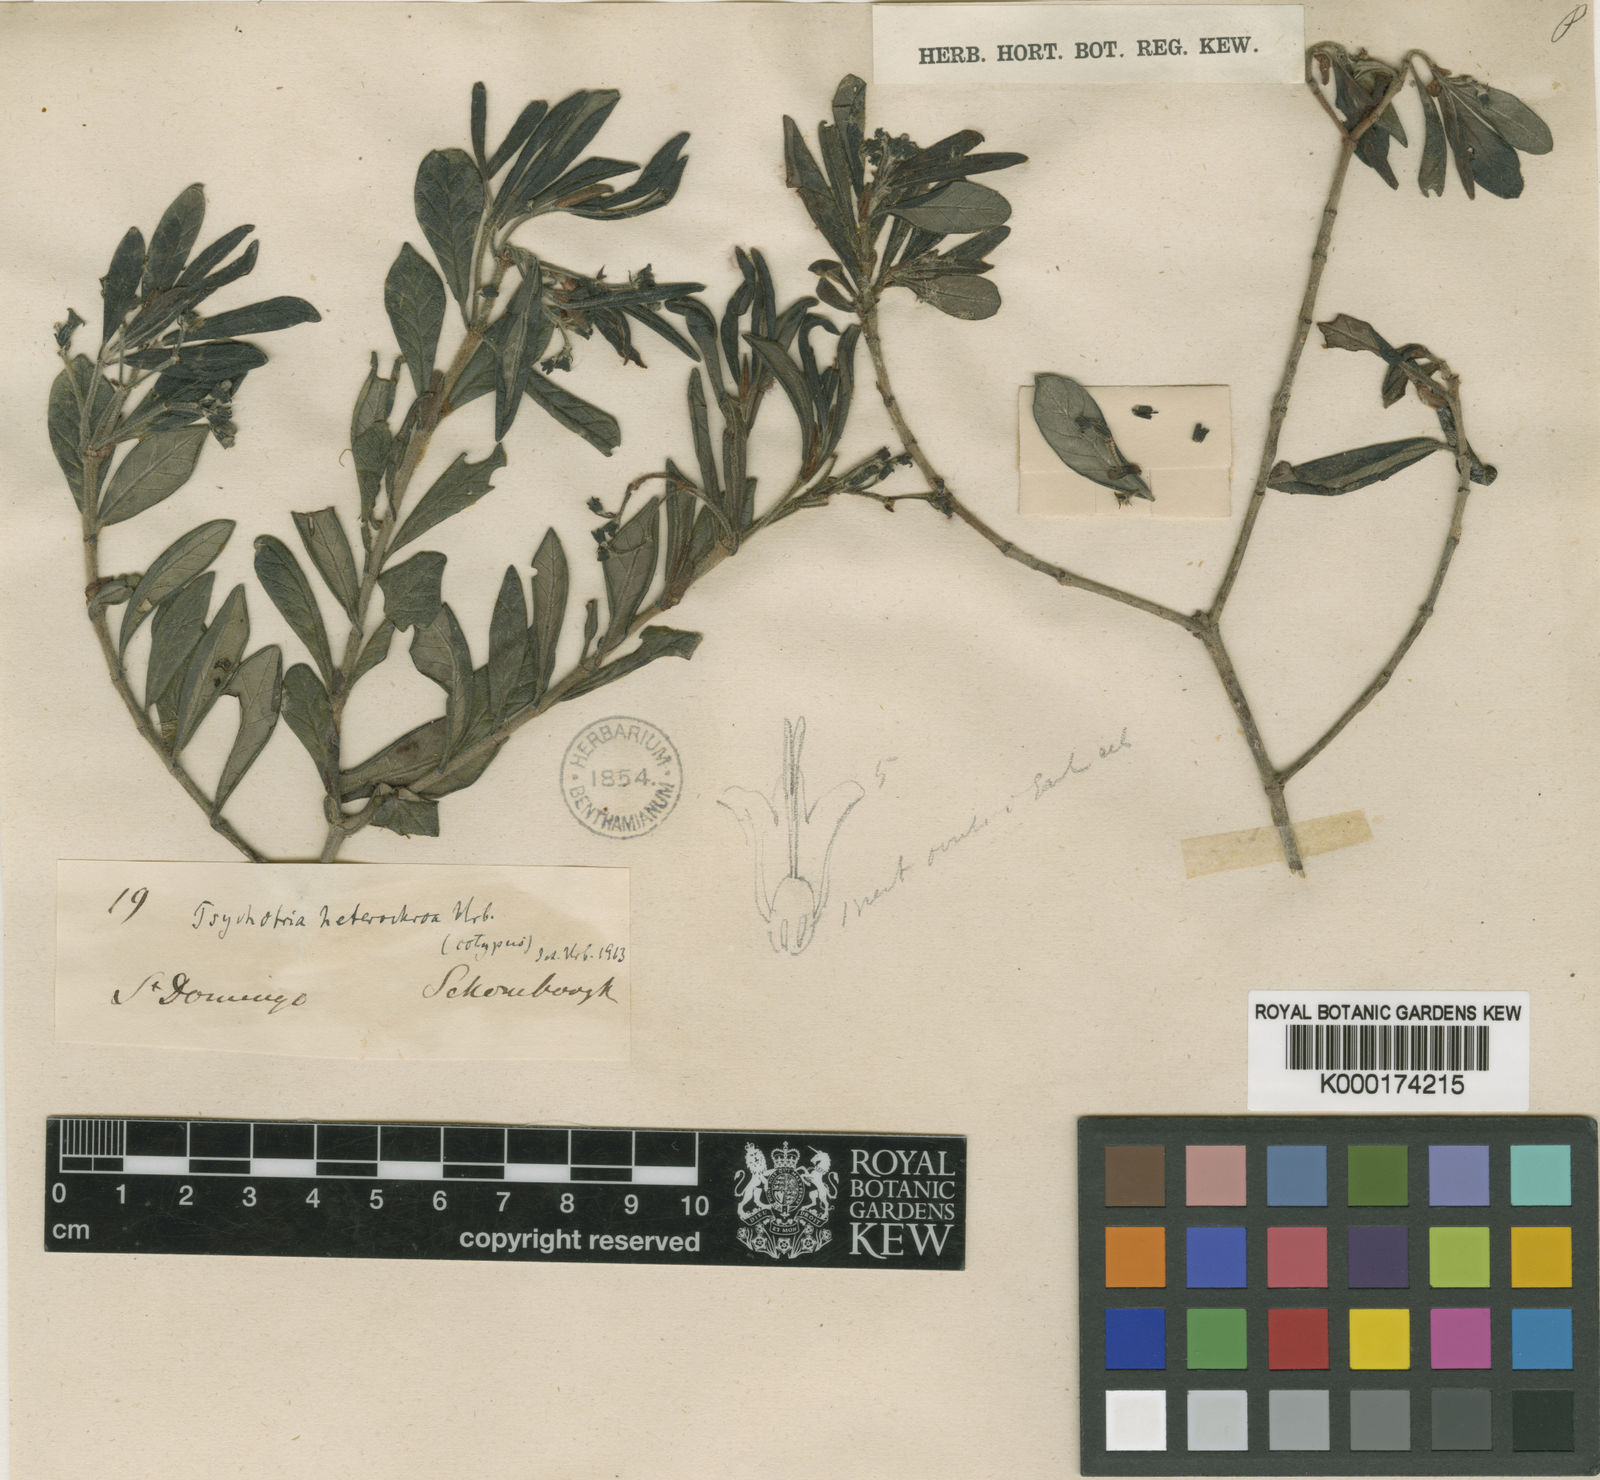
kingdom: Plantae
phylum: Tracheophyta
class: Magnoliopsida
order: Gentianales
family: Rubiaceae
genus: Psychotria
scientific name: Psychotria heterochroa
